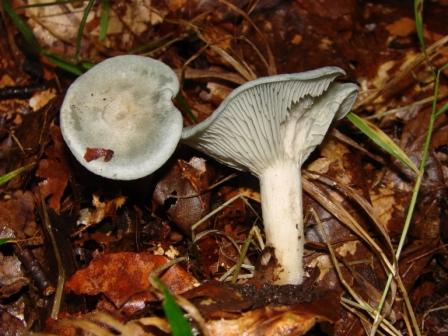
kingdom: Fungi
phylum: Basidiomycota
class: Agaricomycetes
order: Agaricales
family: Tricholomataceae
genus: Clitocybe
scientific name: Clitocybe odora
